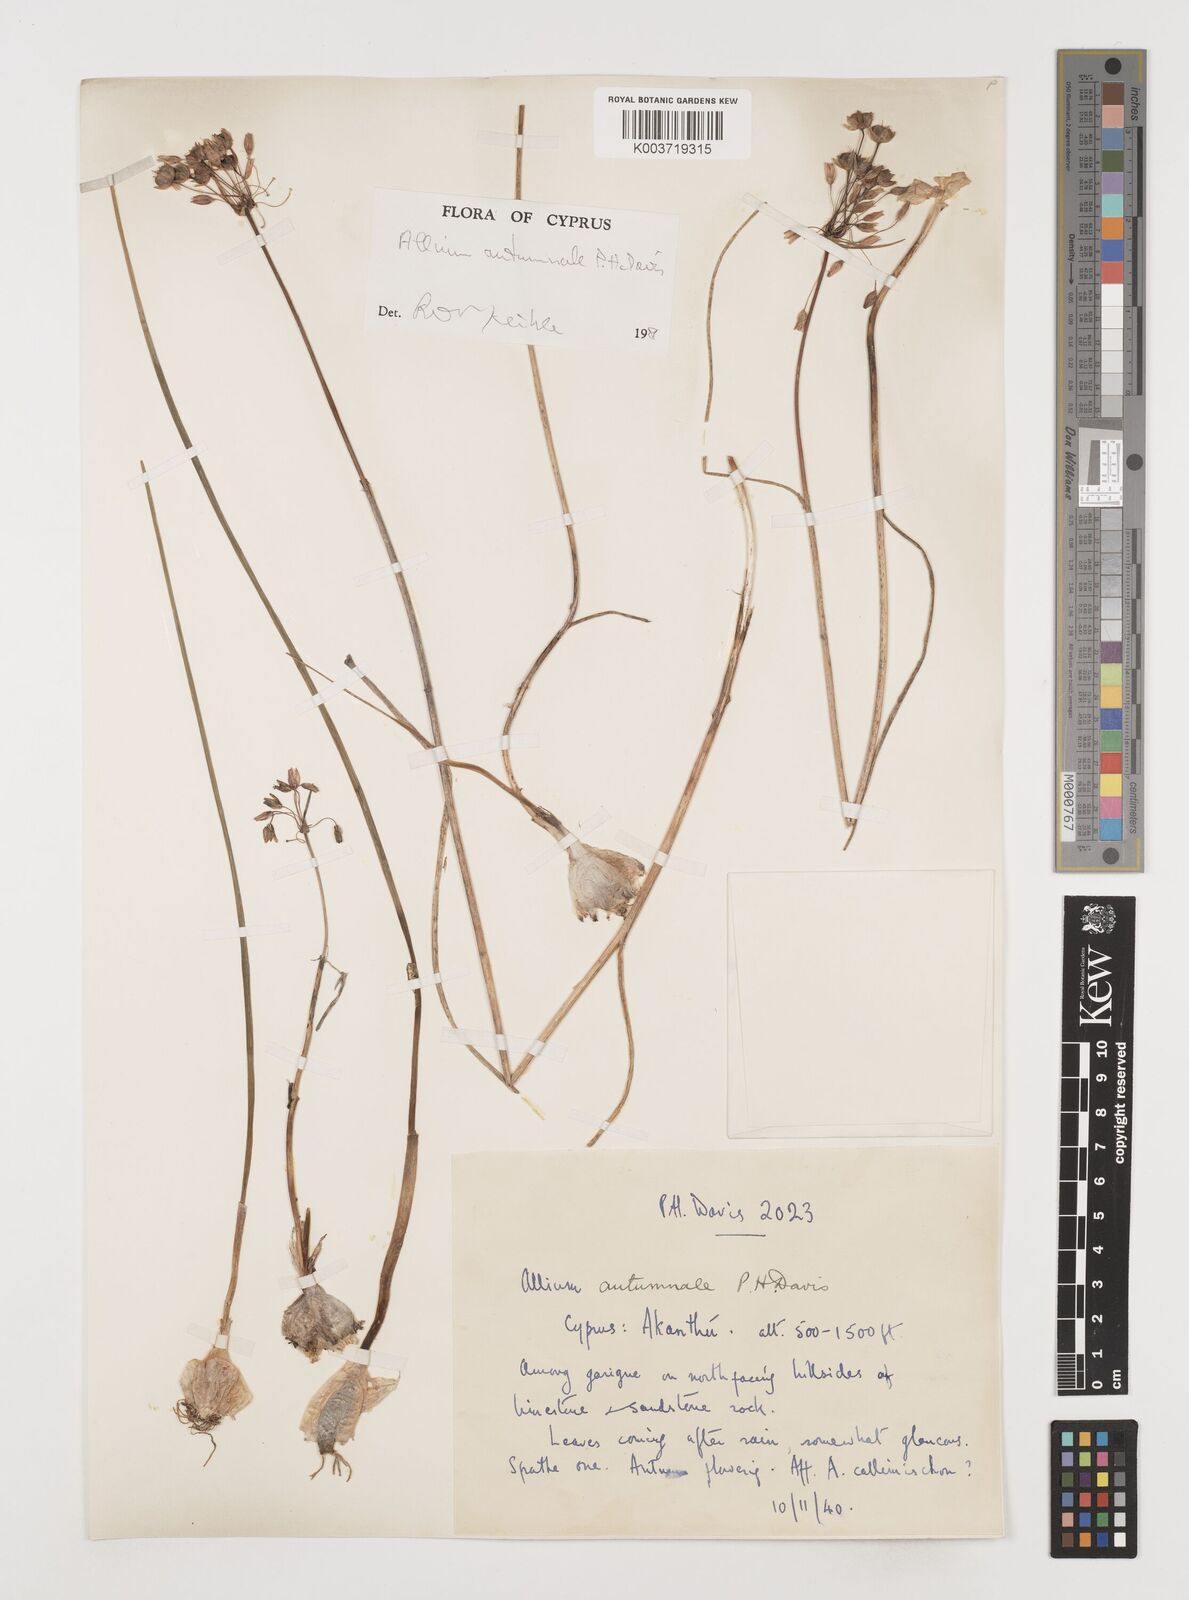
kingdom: Plantae
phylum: Tracheophyta
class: Liliopsida
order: Asparagales
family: Amaryllidaceae
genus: Allium
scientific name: Allium autumnale
